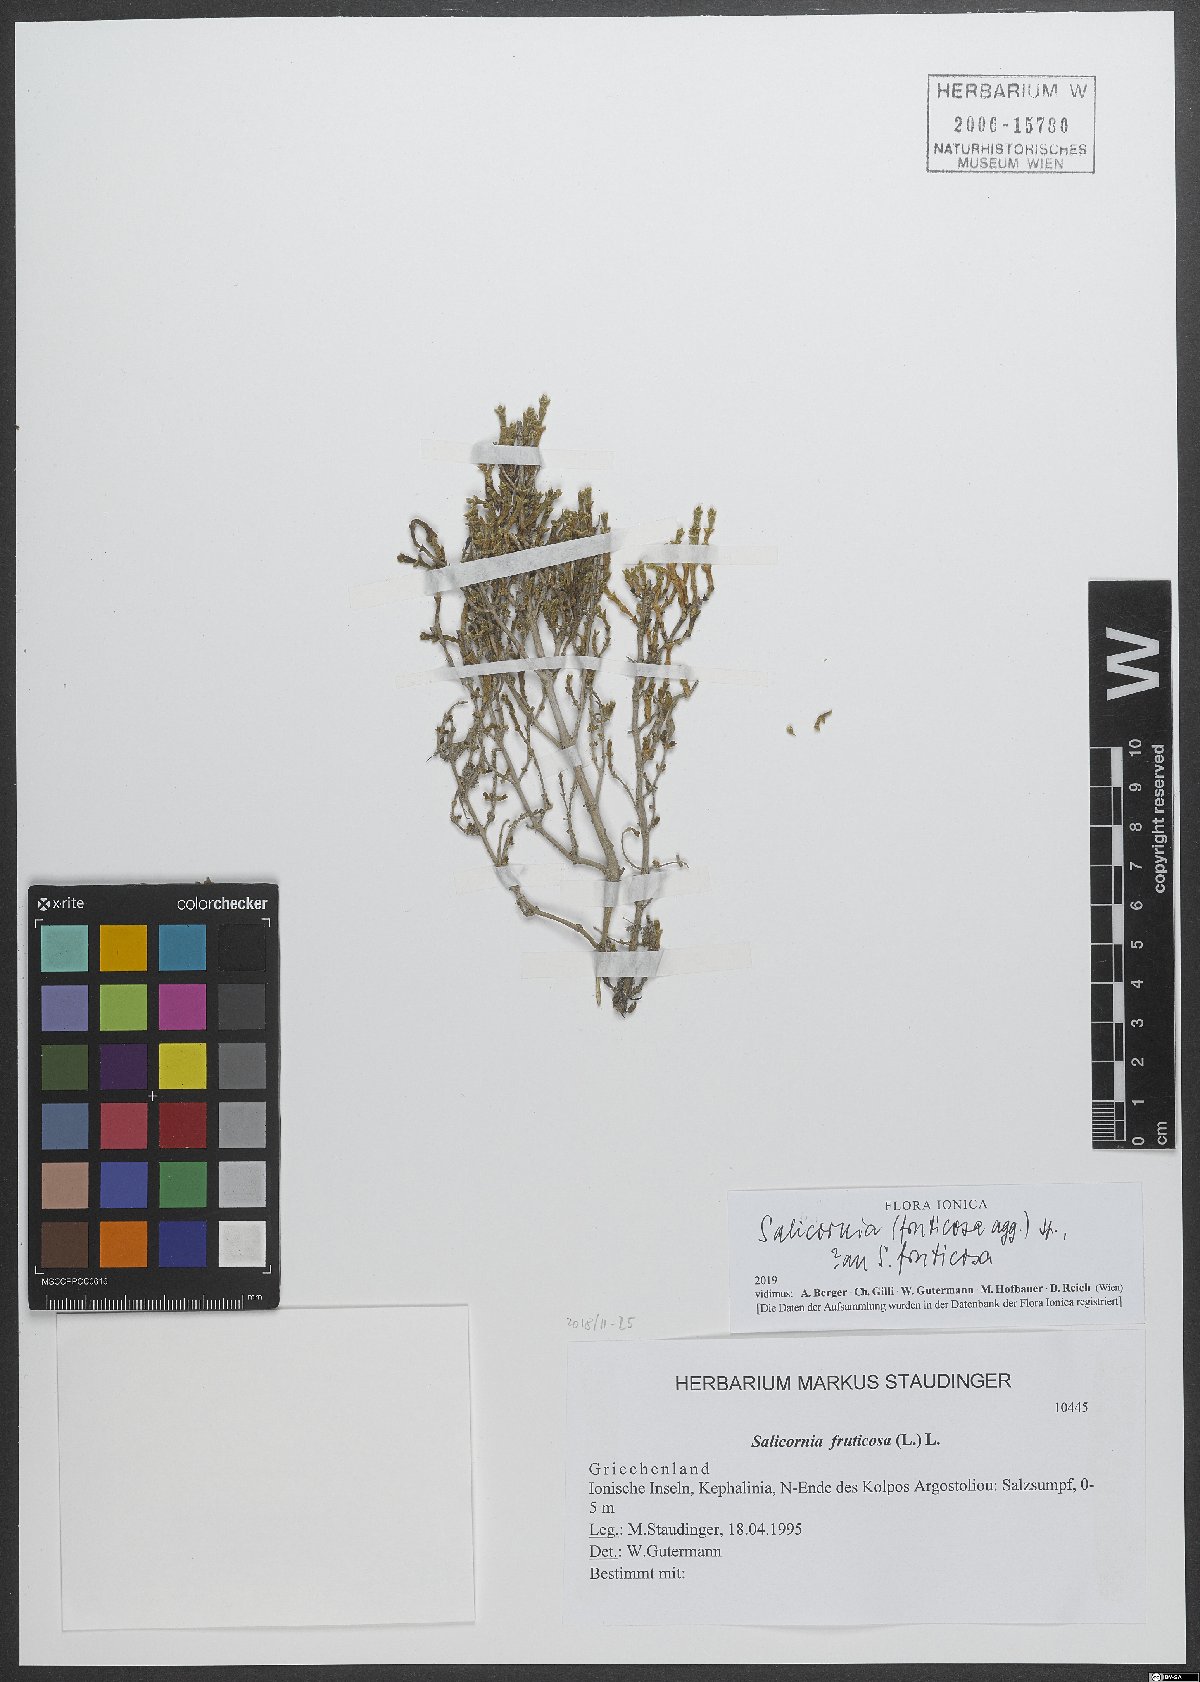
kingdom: Plantae
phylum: Tracheophyta
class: Magnoliopsida
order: Caryophyllales
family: Amaranthaceae
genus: Salicornia
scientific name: Salicornia fruticosa
